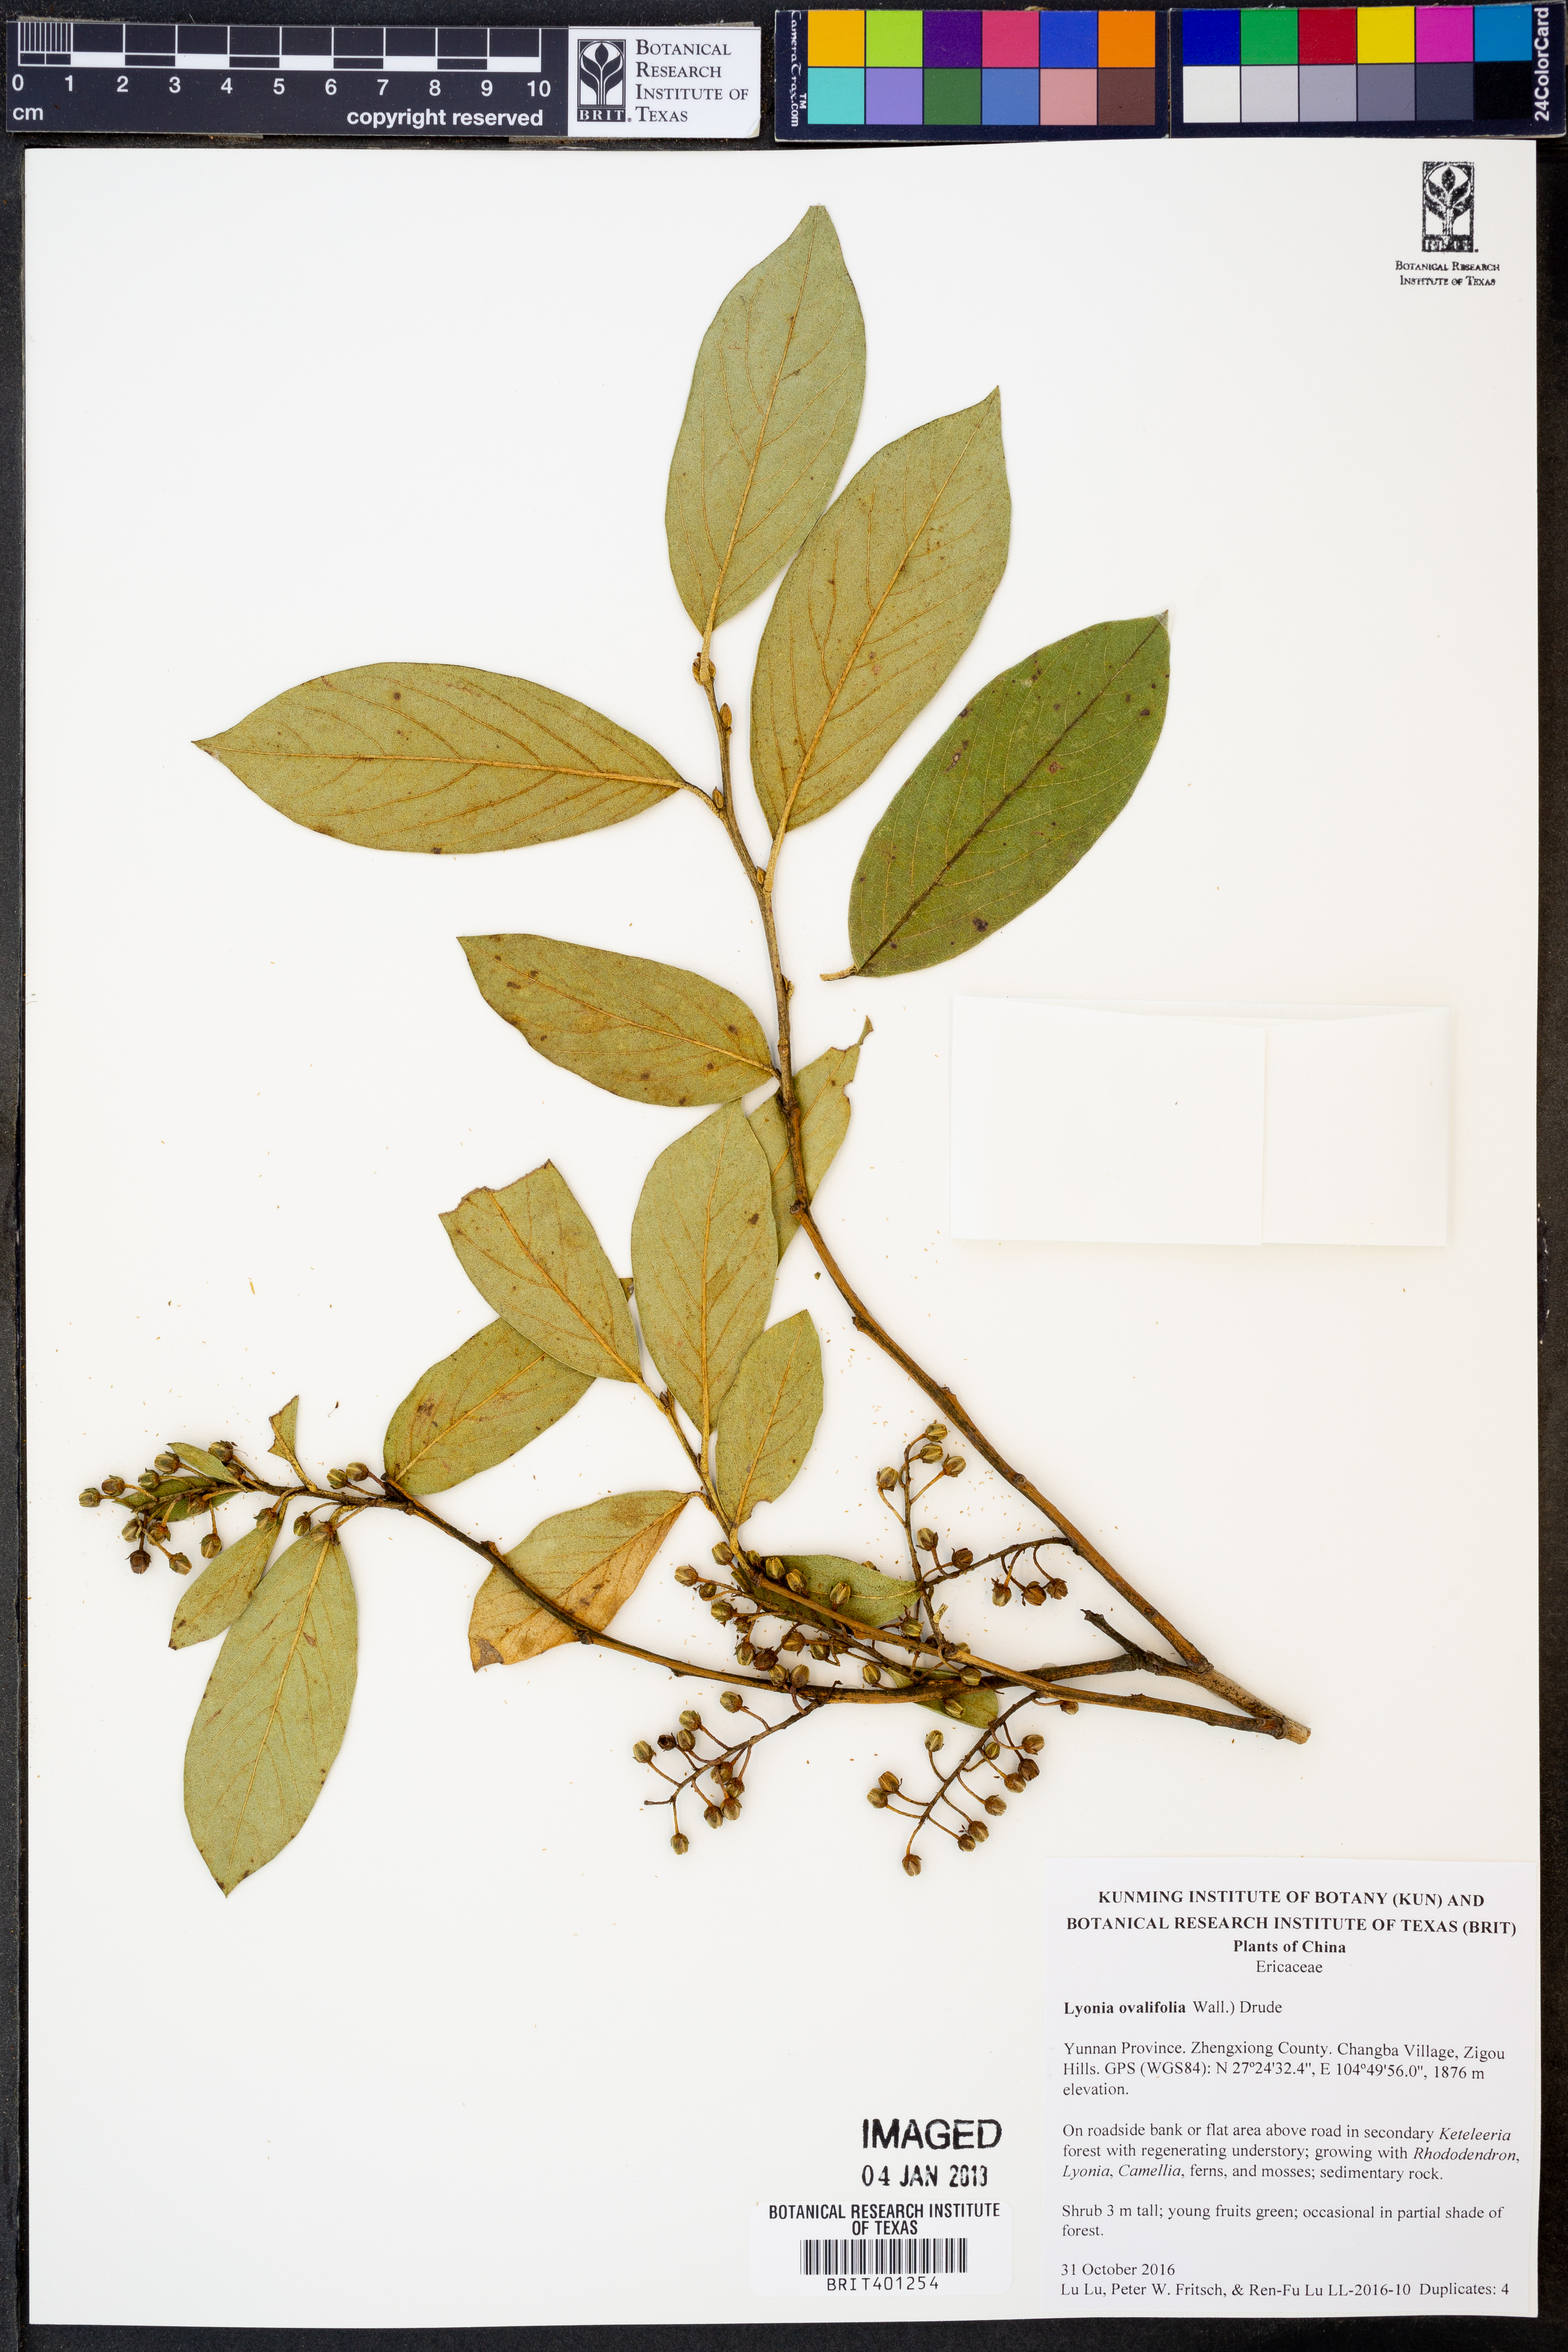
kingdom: Plantae
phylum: Tracheophyta
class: Magnoliopsida
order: Ericales
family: Ericaceae
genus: Lyonia
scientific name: Lyonia ovalifolia
